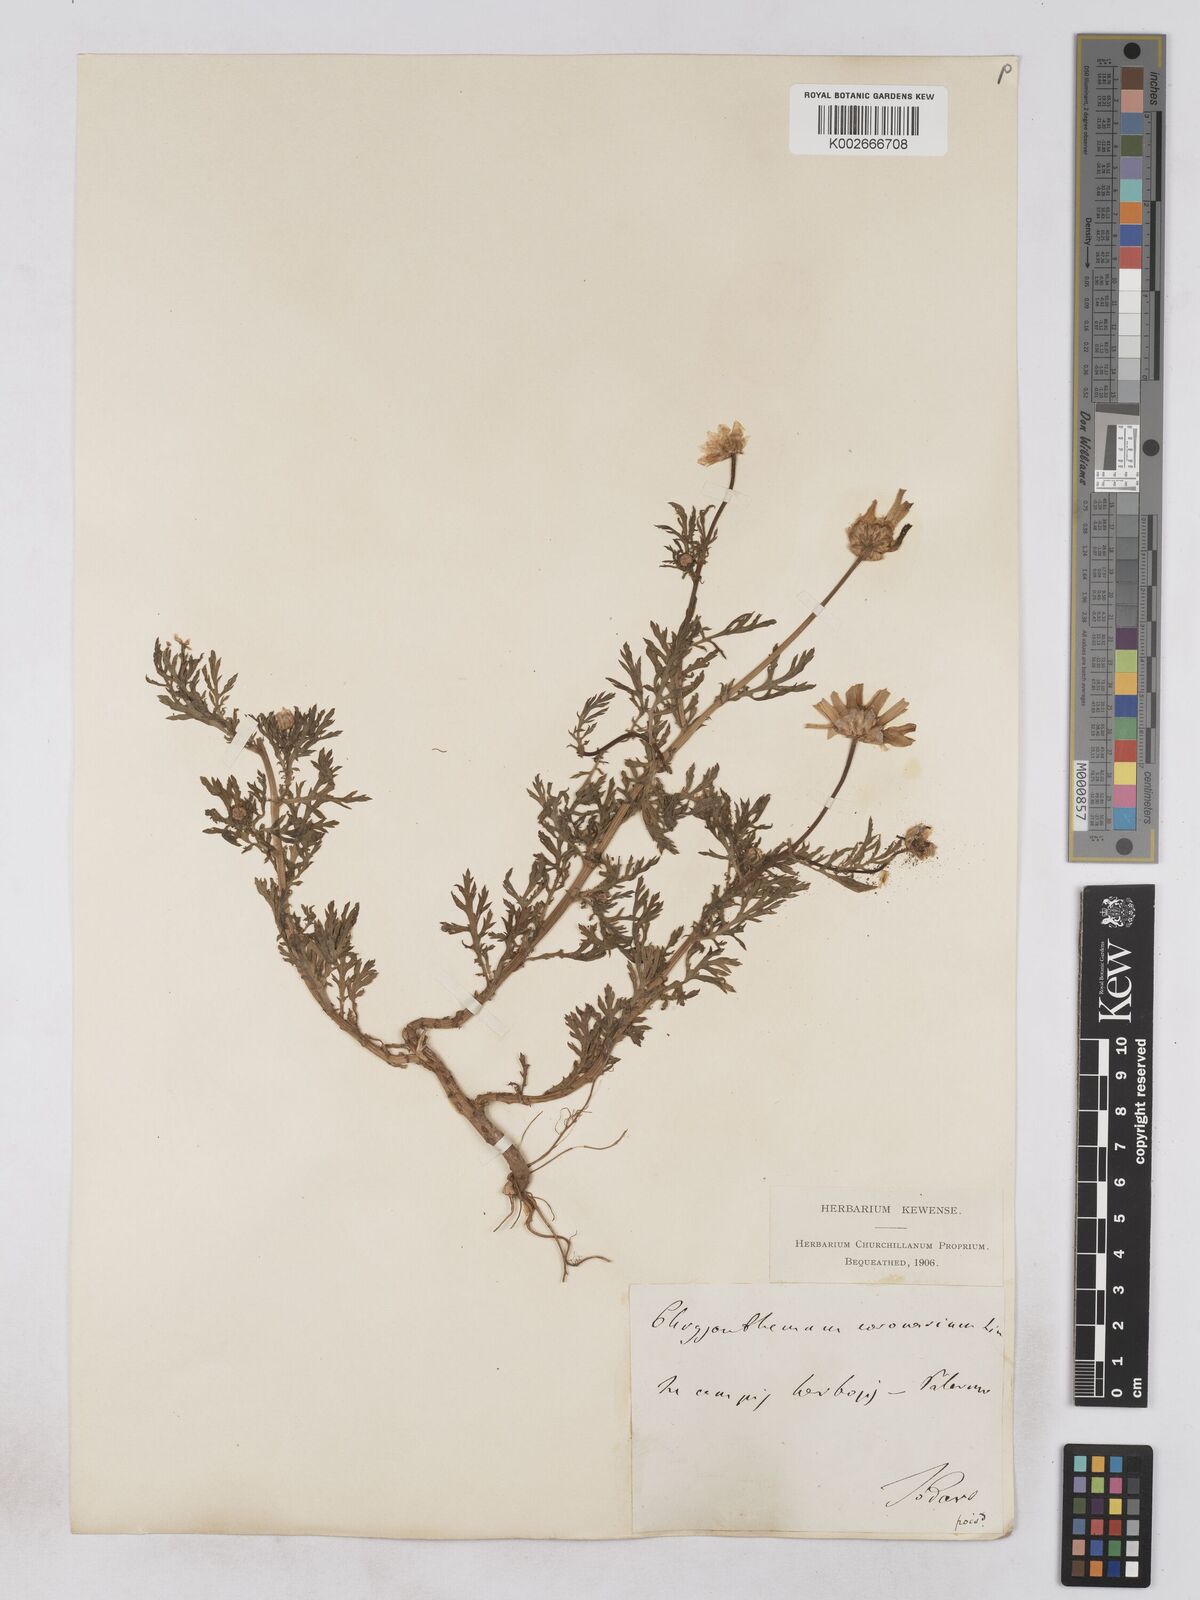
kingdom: Plantae
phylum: Tracheophyta
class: Magnoliopsida
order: Asterales
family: Asteraceae
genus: Glebionis
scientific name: Glebionis coronaria
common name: Crowndaisy
